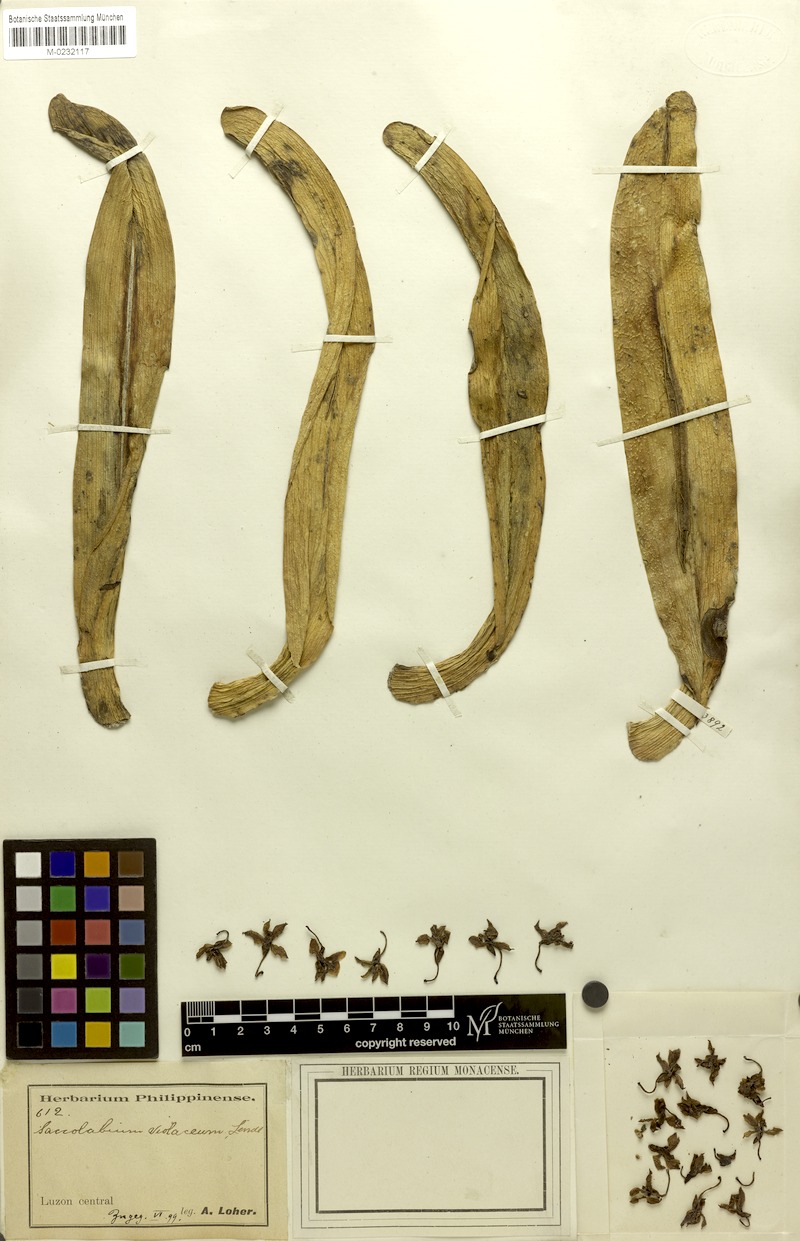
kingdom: Plantae
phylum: Tracheophyta
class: Liliopsida
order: Asparagales
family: Orchidaceae
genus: Rhynchostylis
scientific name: Rhynchostylis gigantea
